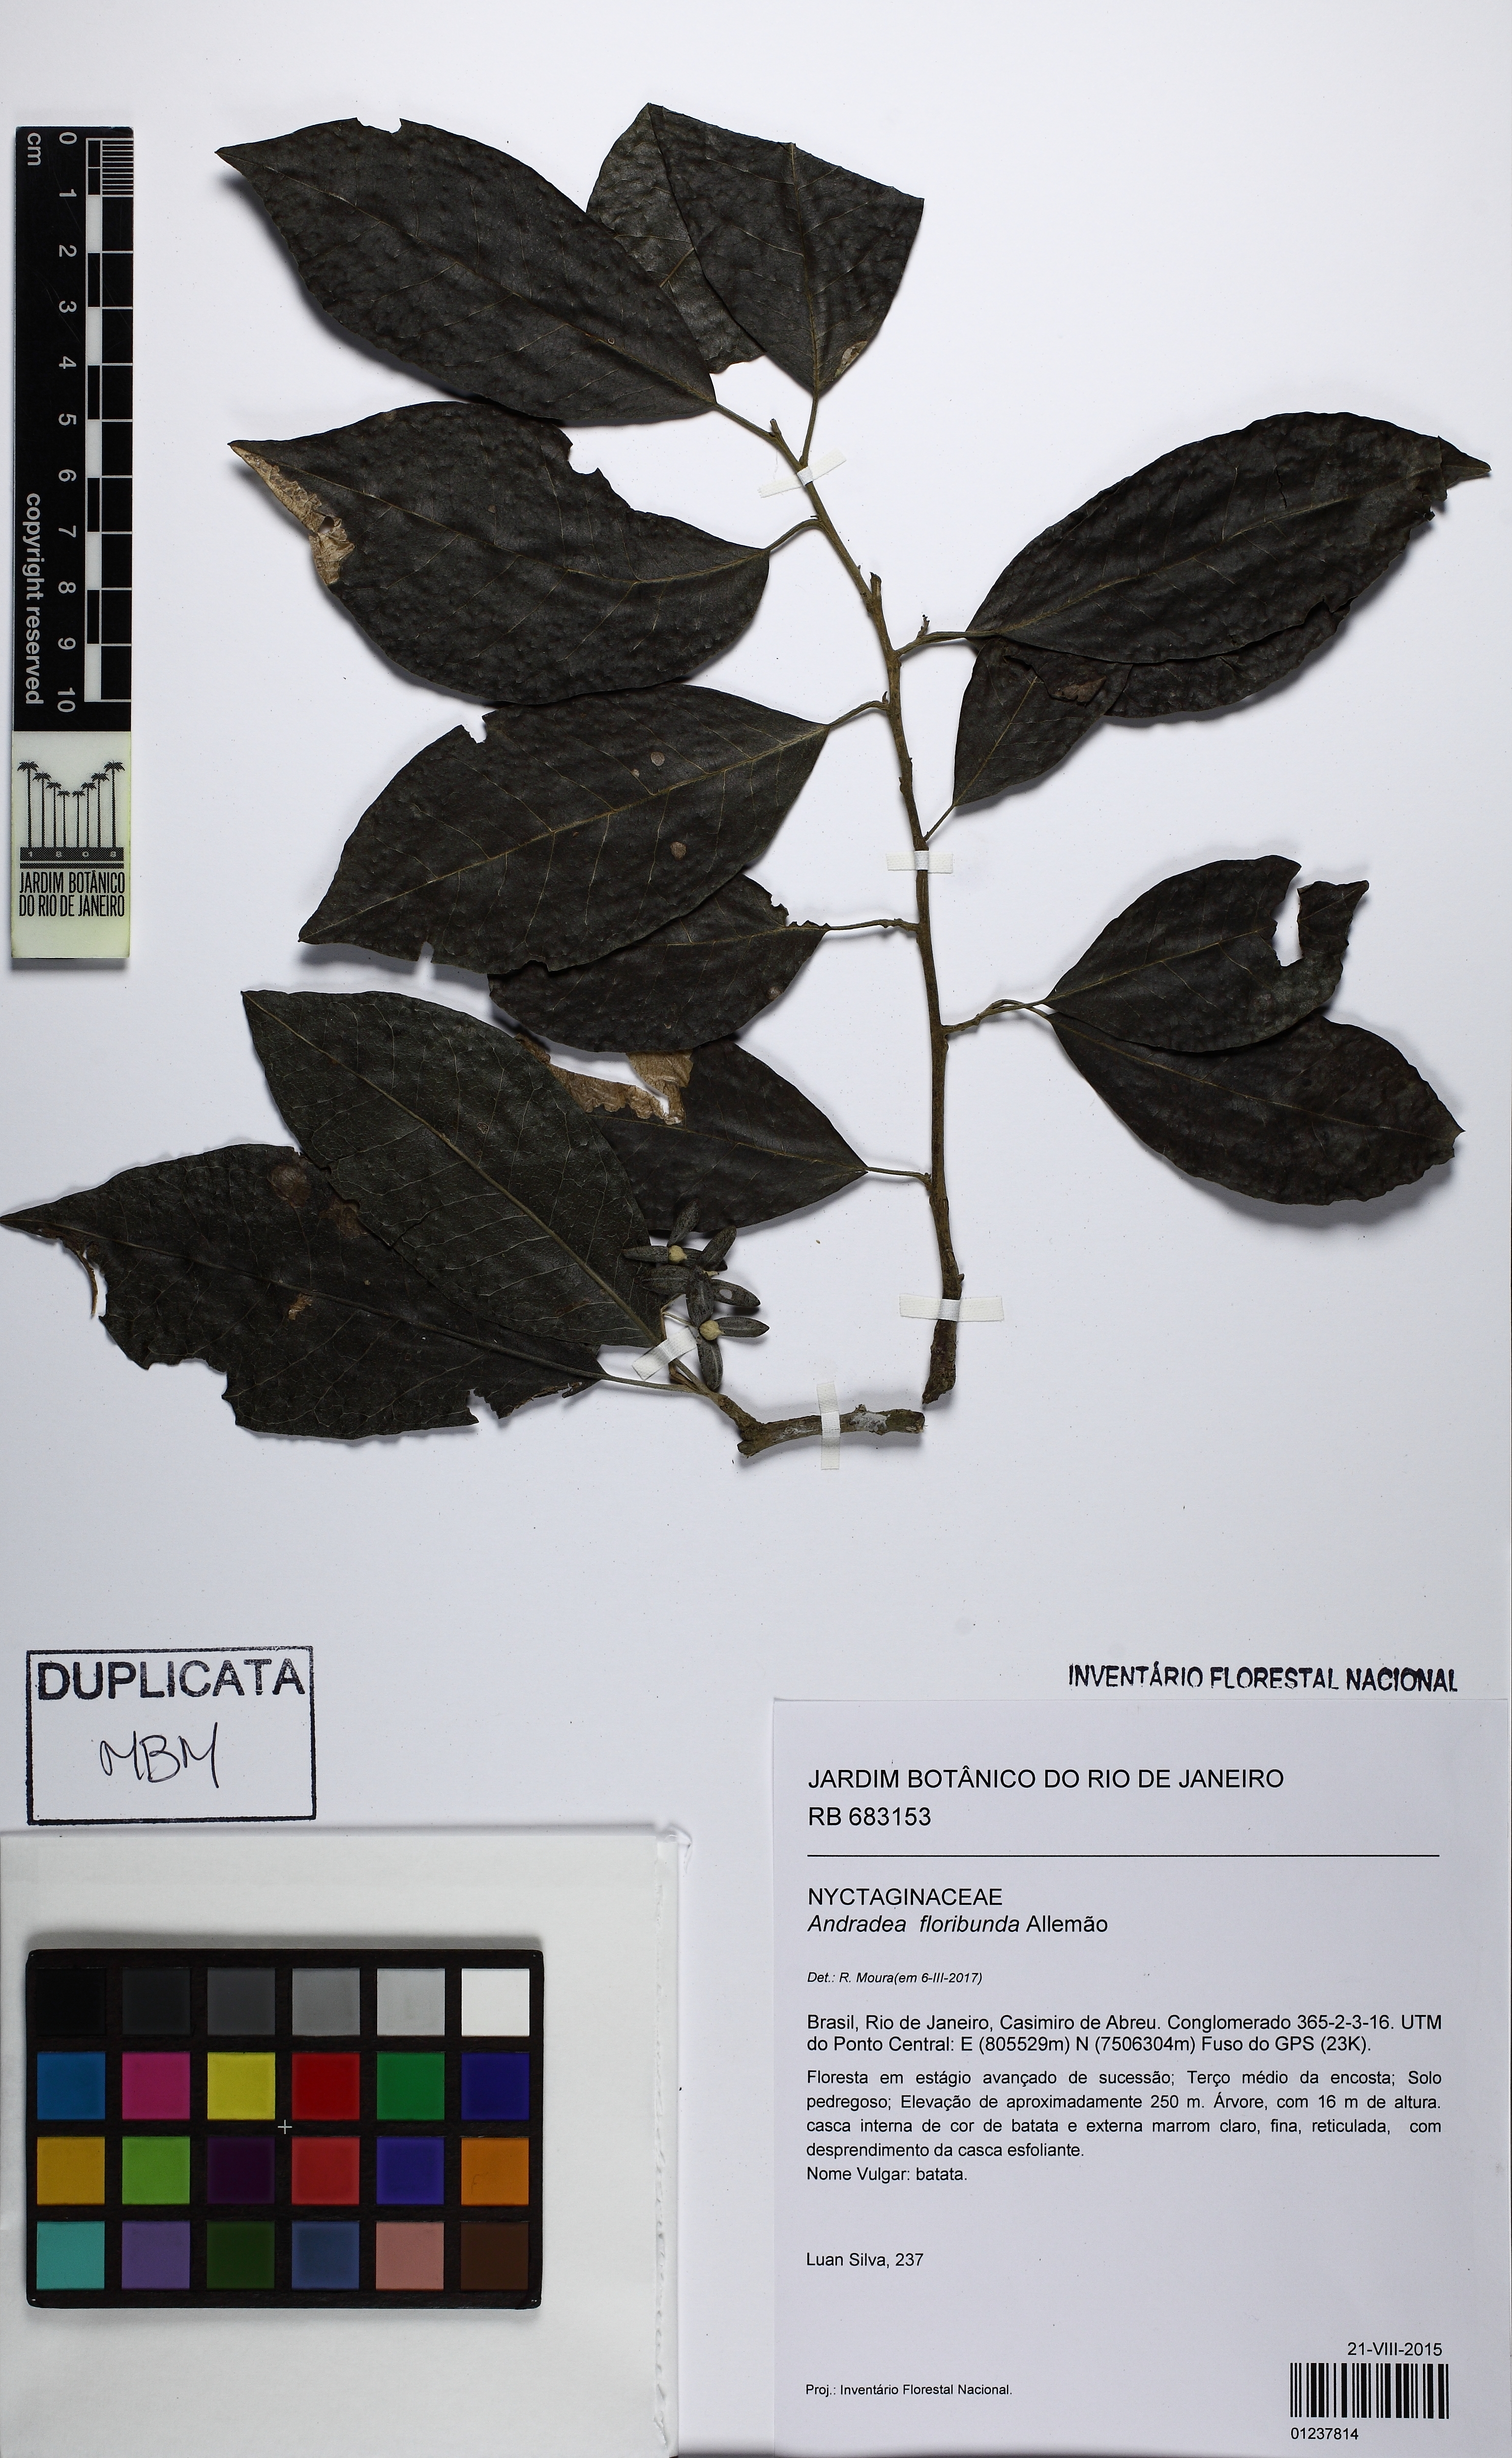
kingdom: Plantae
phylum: Tracheophyta
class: Magnoliopsida
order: Caryophyllales
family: Nyctaginaceae
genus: Andradea
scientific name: Andradea floribunda
